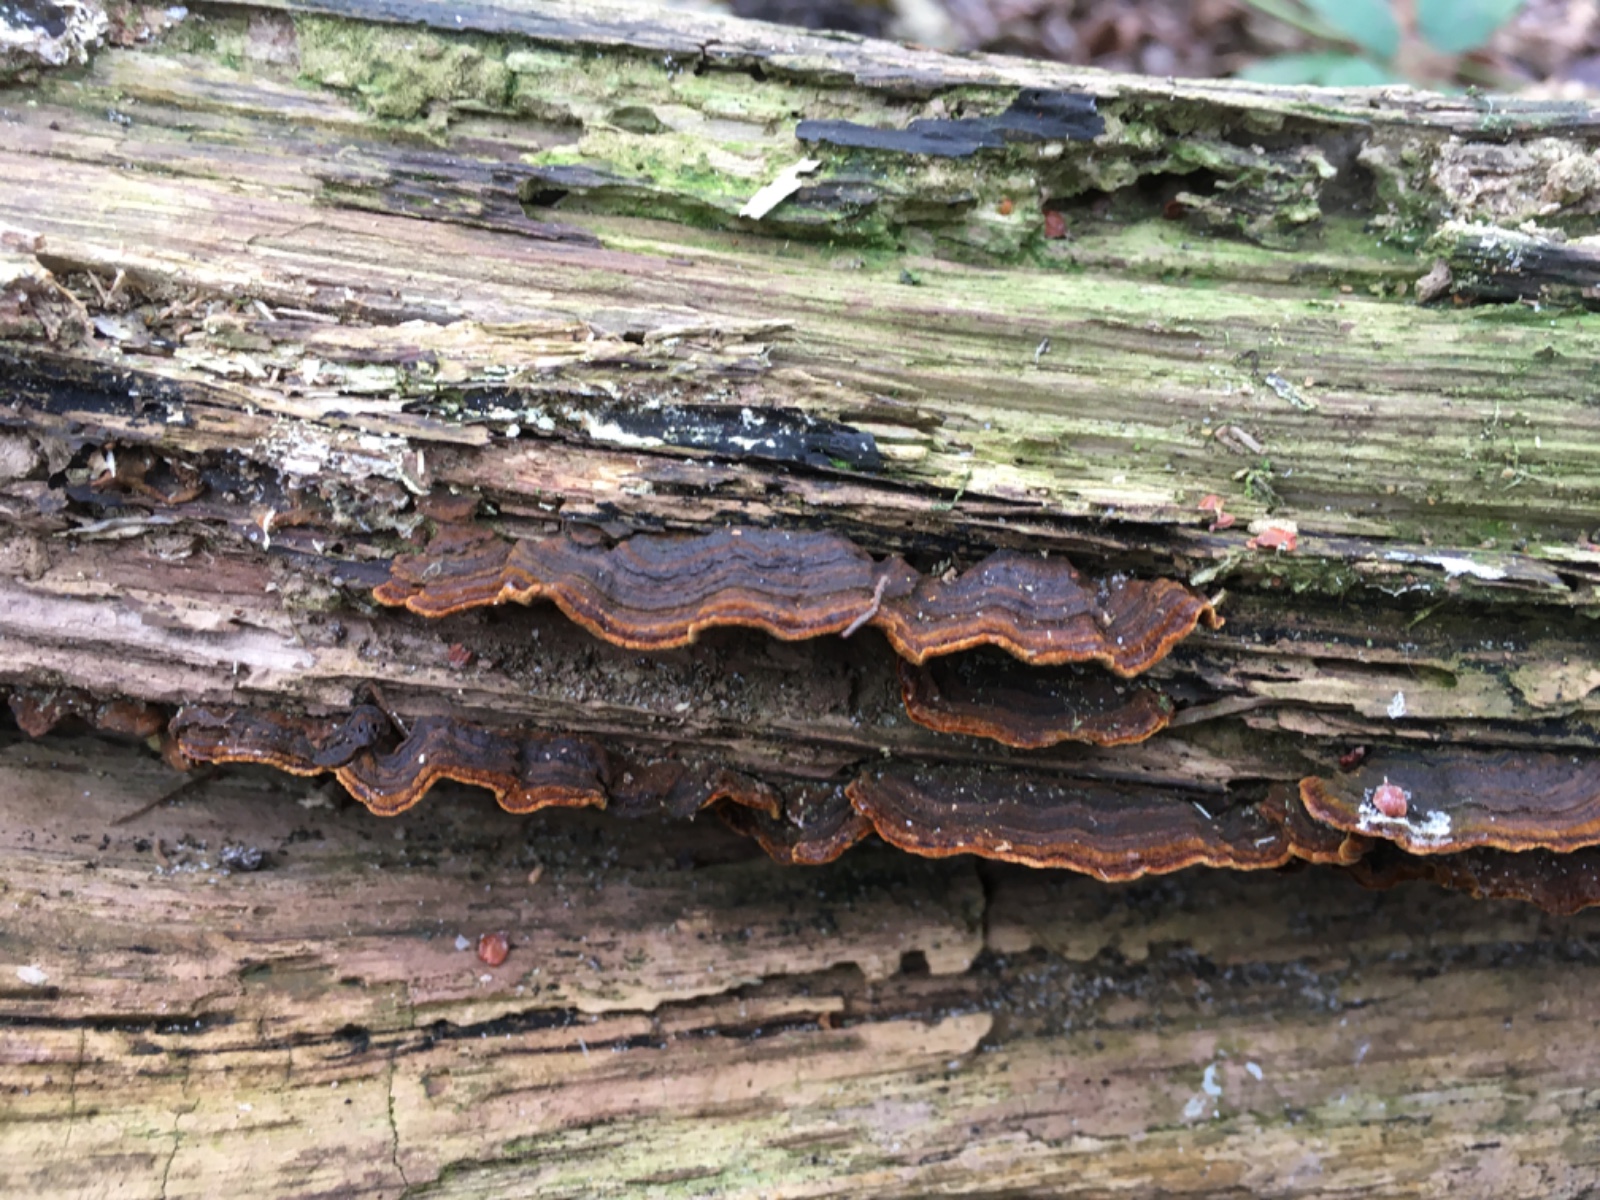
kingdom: Fungi
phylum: Basidiomycota
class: Agaricomycetes
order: Hymenochaetales
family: Hymenochaetaceae
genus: Hymenochaete
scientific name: Hymenochaete rubiginosa
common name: stiv ruslædersvamp
